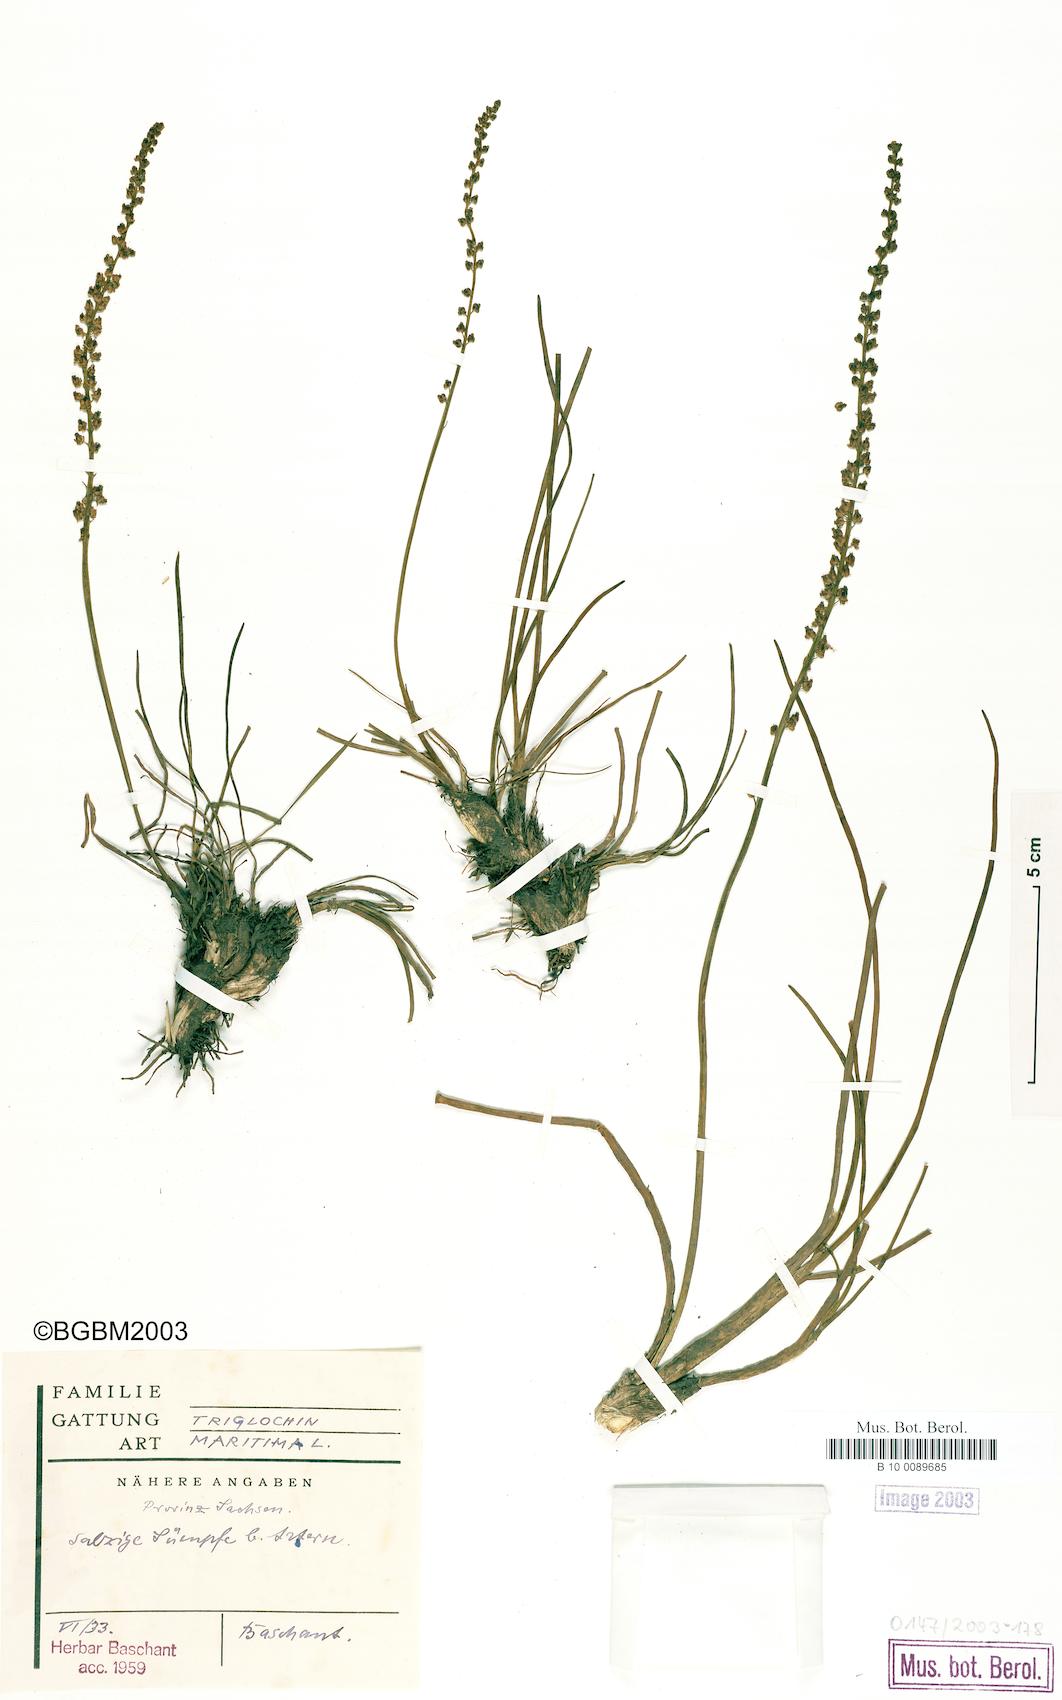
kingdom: Plantae
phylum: Tracheophyta
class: Liliopsida
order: Alismatales
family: Juncaginaceae
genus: Triglochin
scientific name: Triglochin maritima
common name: Sea arrowgrass
